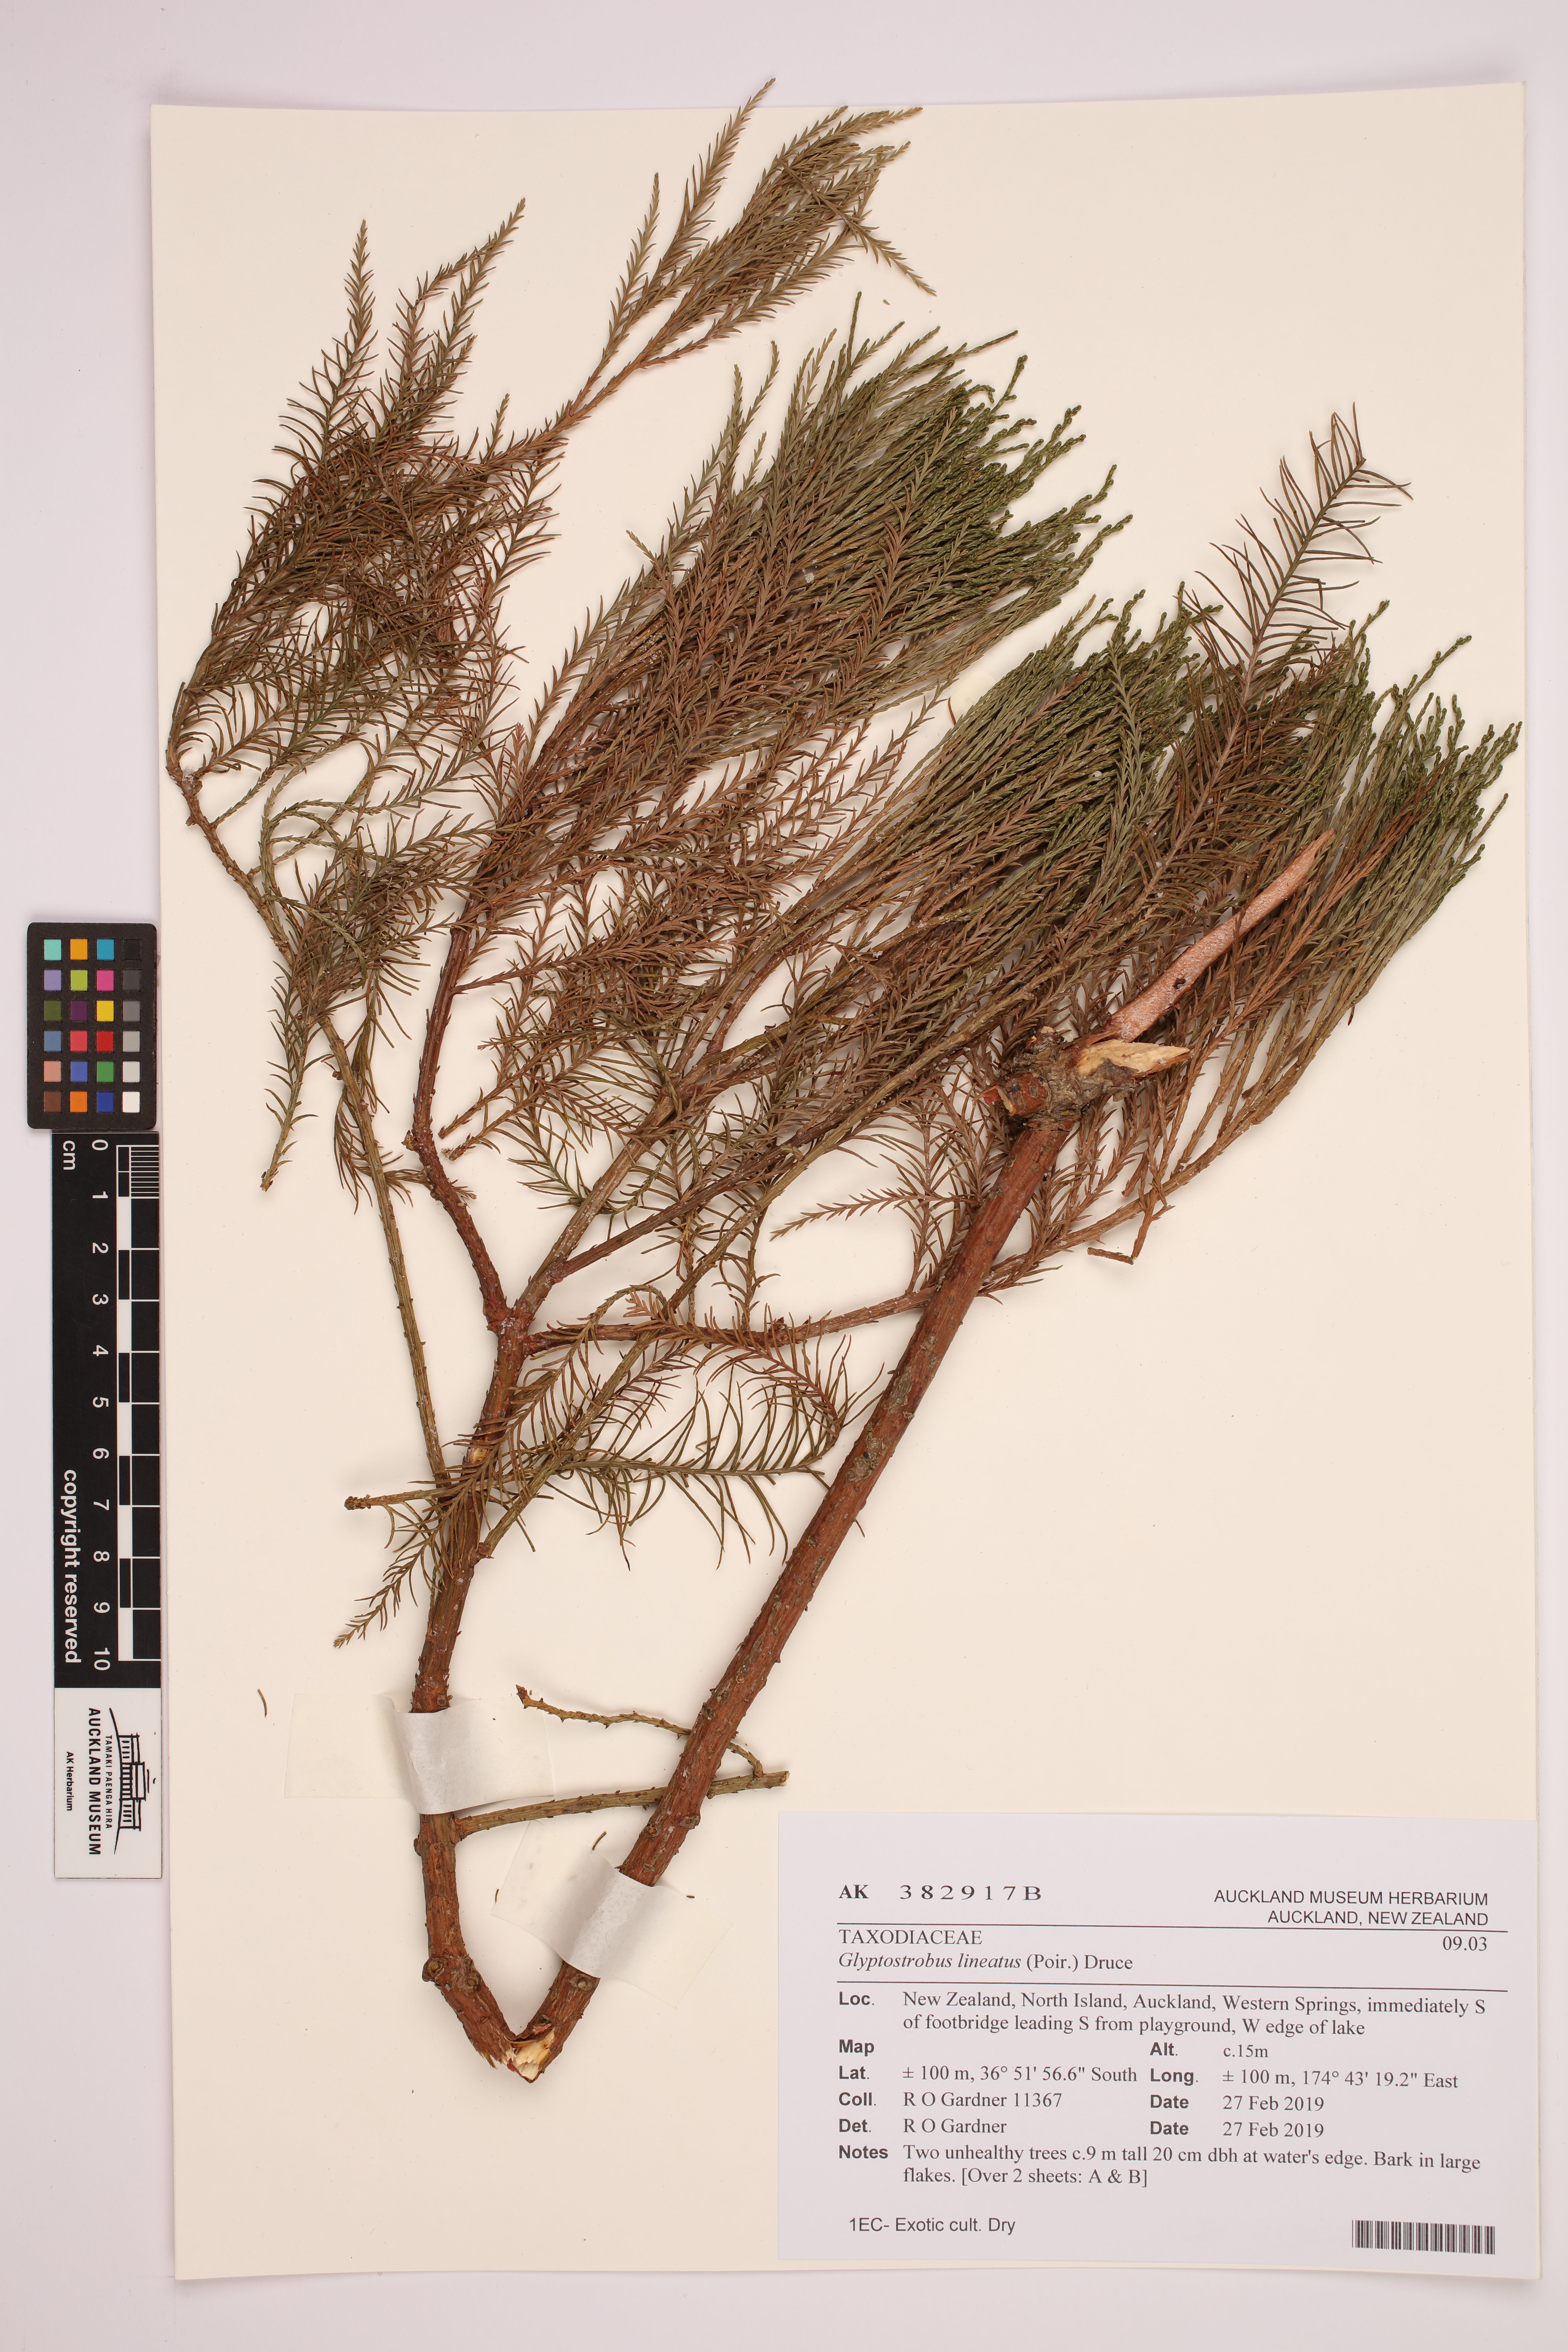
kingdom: Plantae
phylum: Tracheophyta
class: Pinopsida
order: Pinales
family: Cupressaceae
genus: Taxodium
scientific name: Taxodium distichum
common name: Bald cypress
